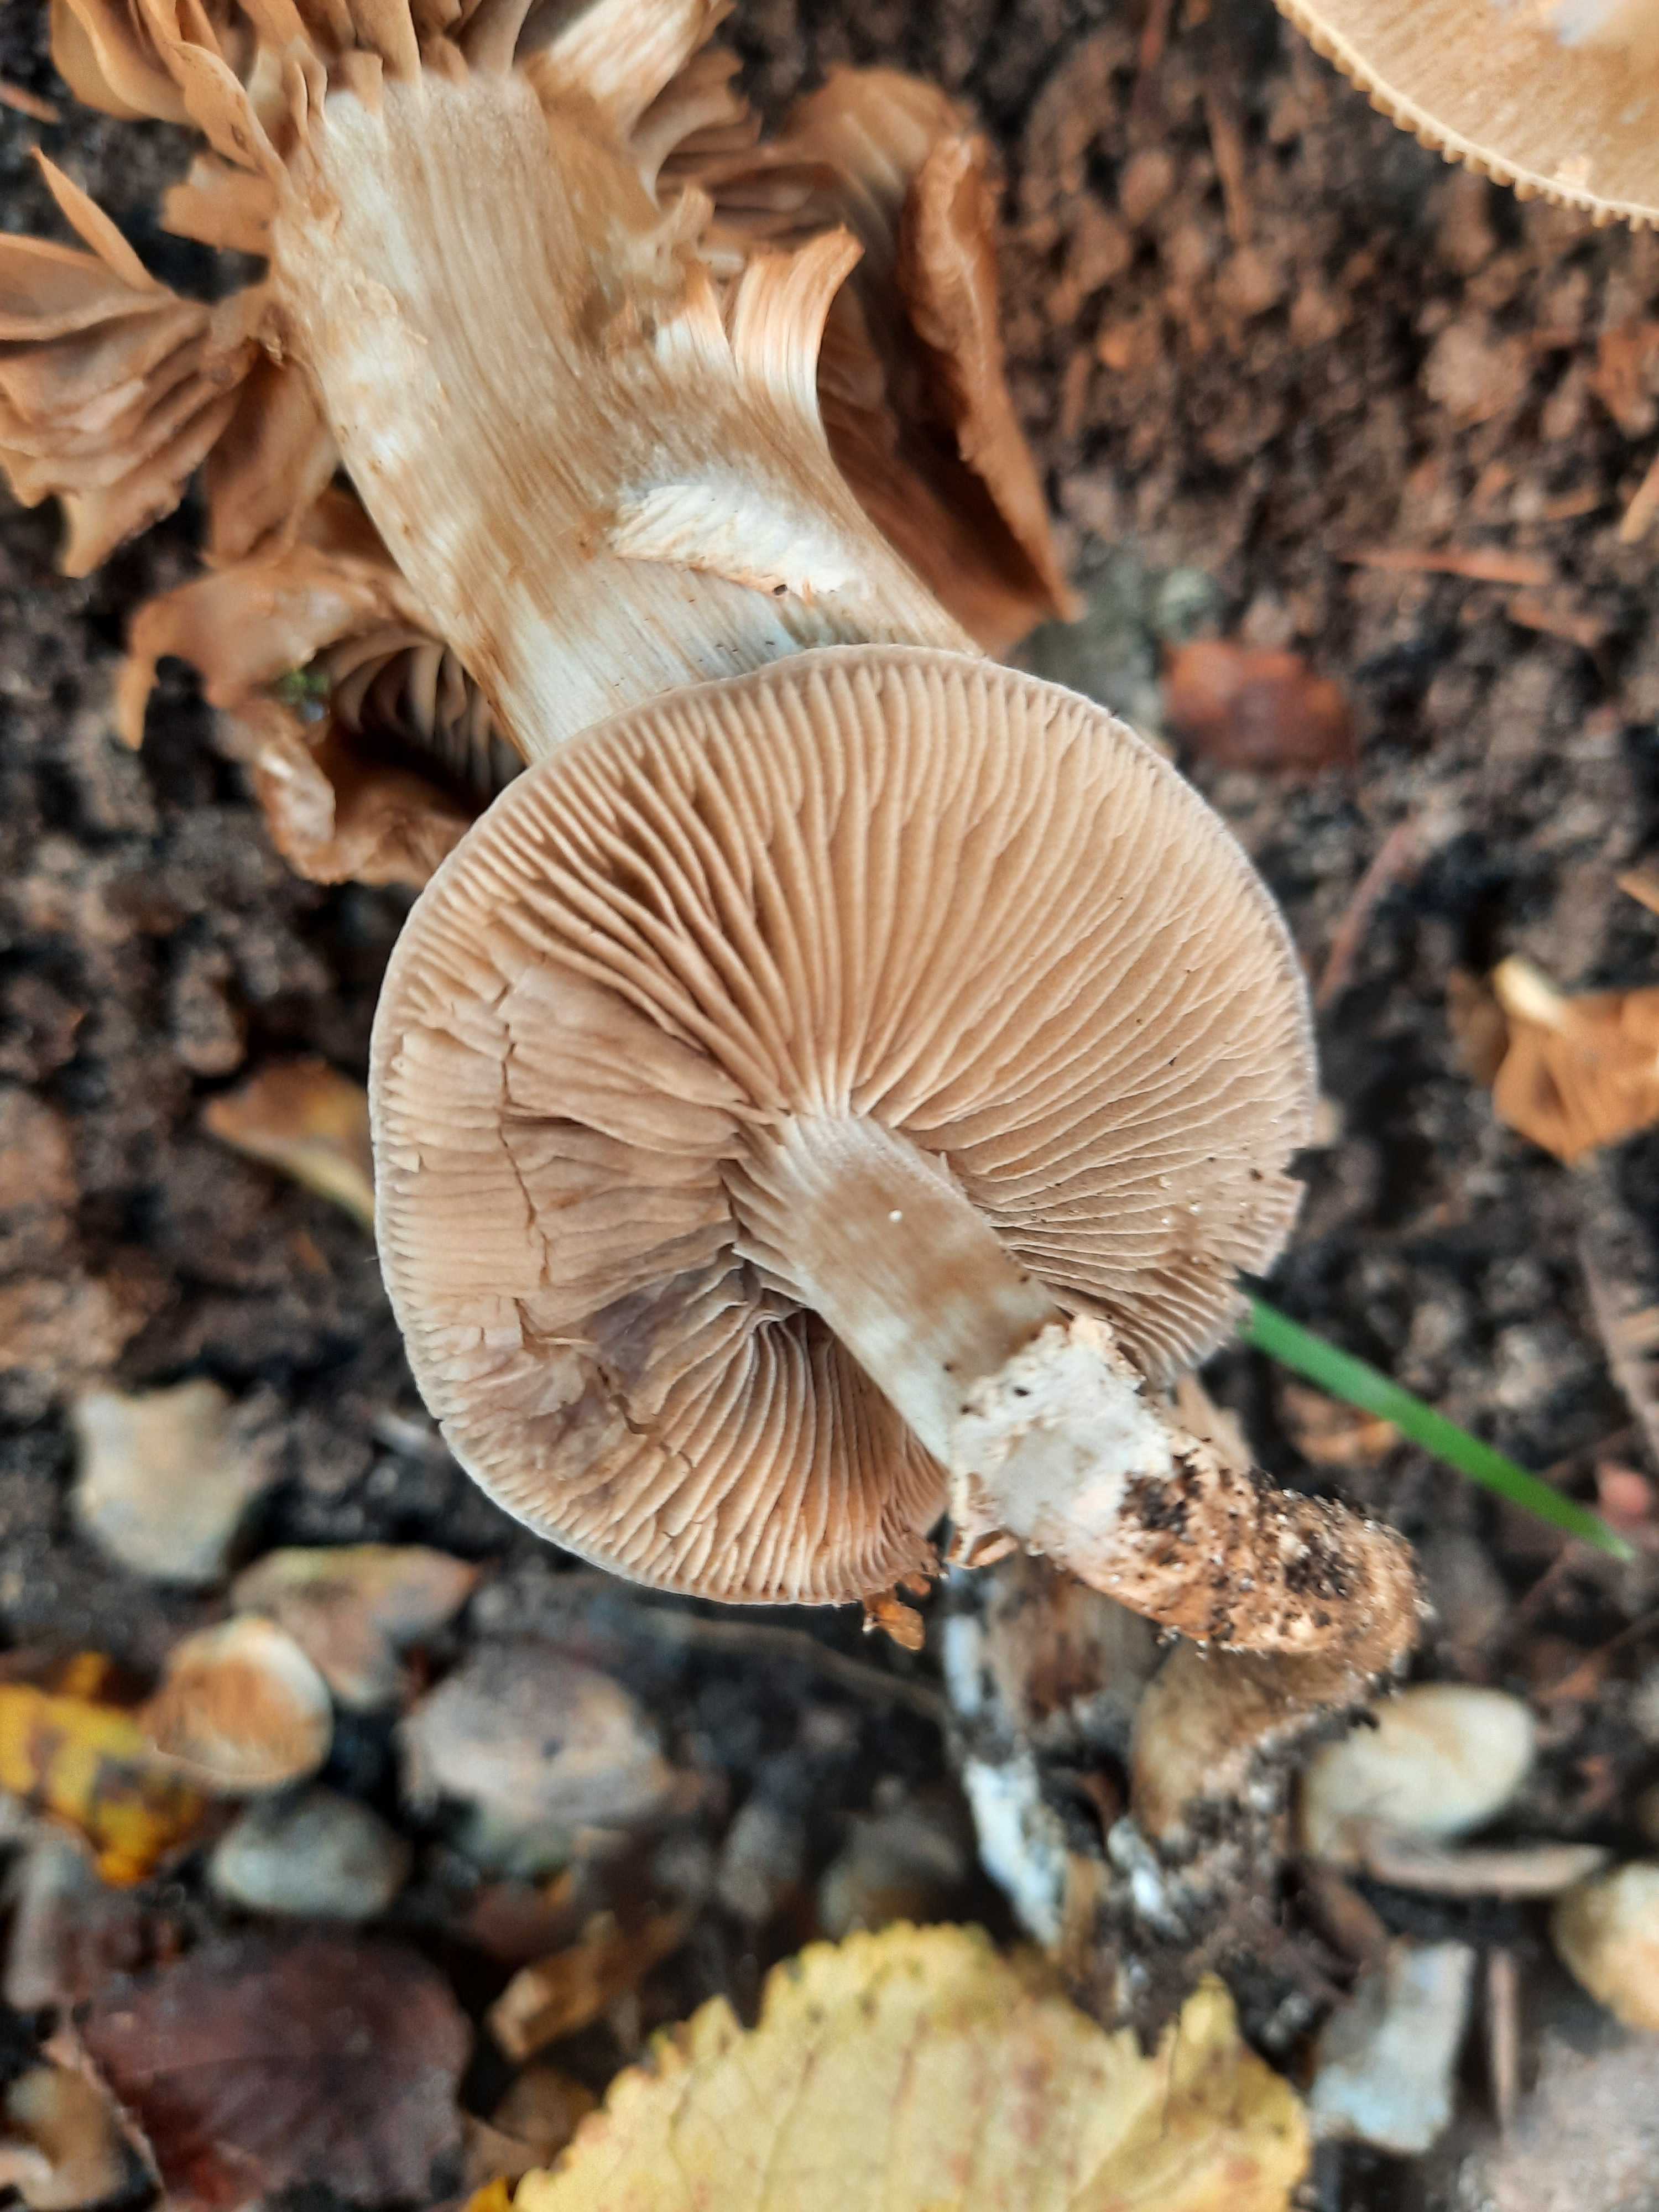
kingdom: Fungi
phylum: Basidiomycota
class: Agaricomycetes
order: Agaricales
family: Tubariaceae
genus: Cyclocybe
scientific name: Cyclocybe erebia
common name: mørk agerhat
